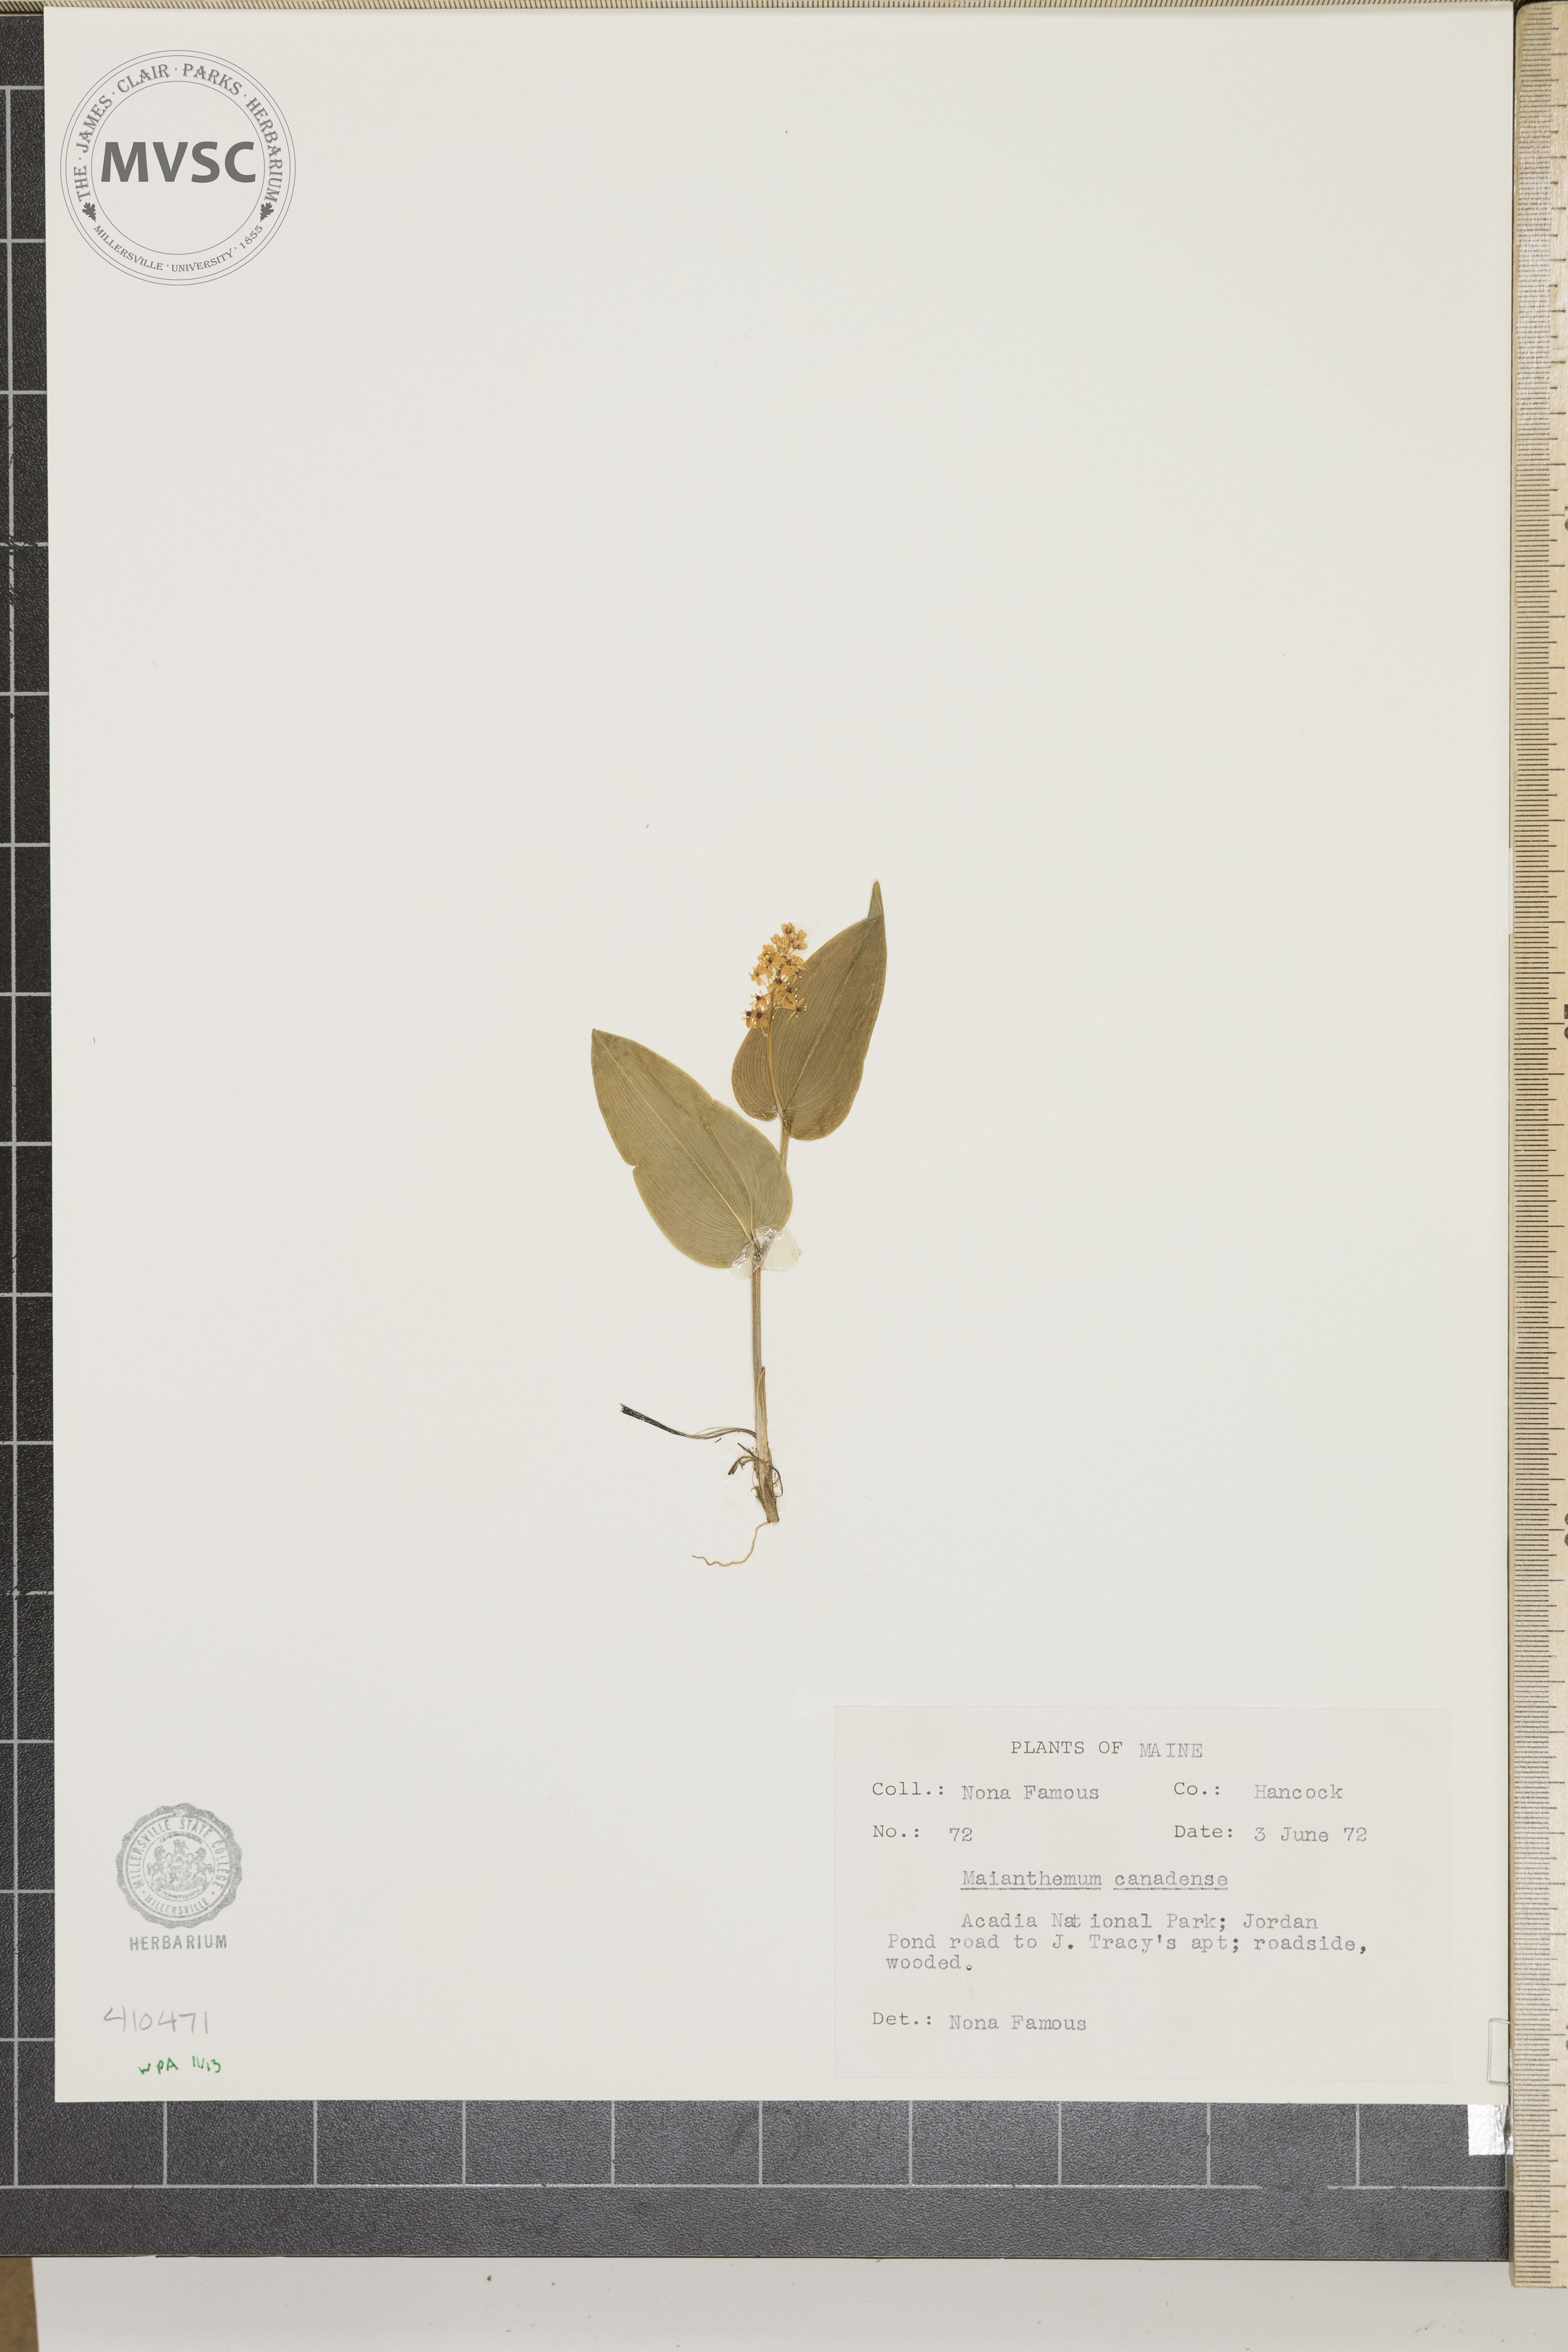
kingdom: Plantae
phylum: Tracheophyta
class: Liliopsida
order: Asparagales
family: Asparagaceae
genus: Maianthemum
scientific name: Maianthemum canadense
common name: False lily-of-the-valley
